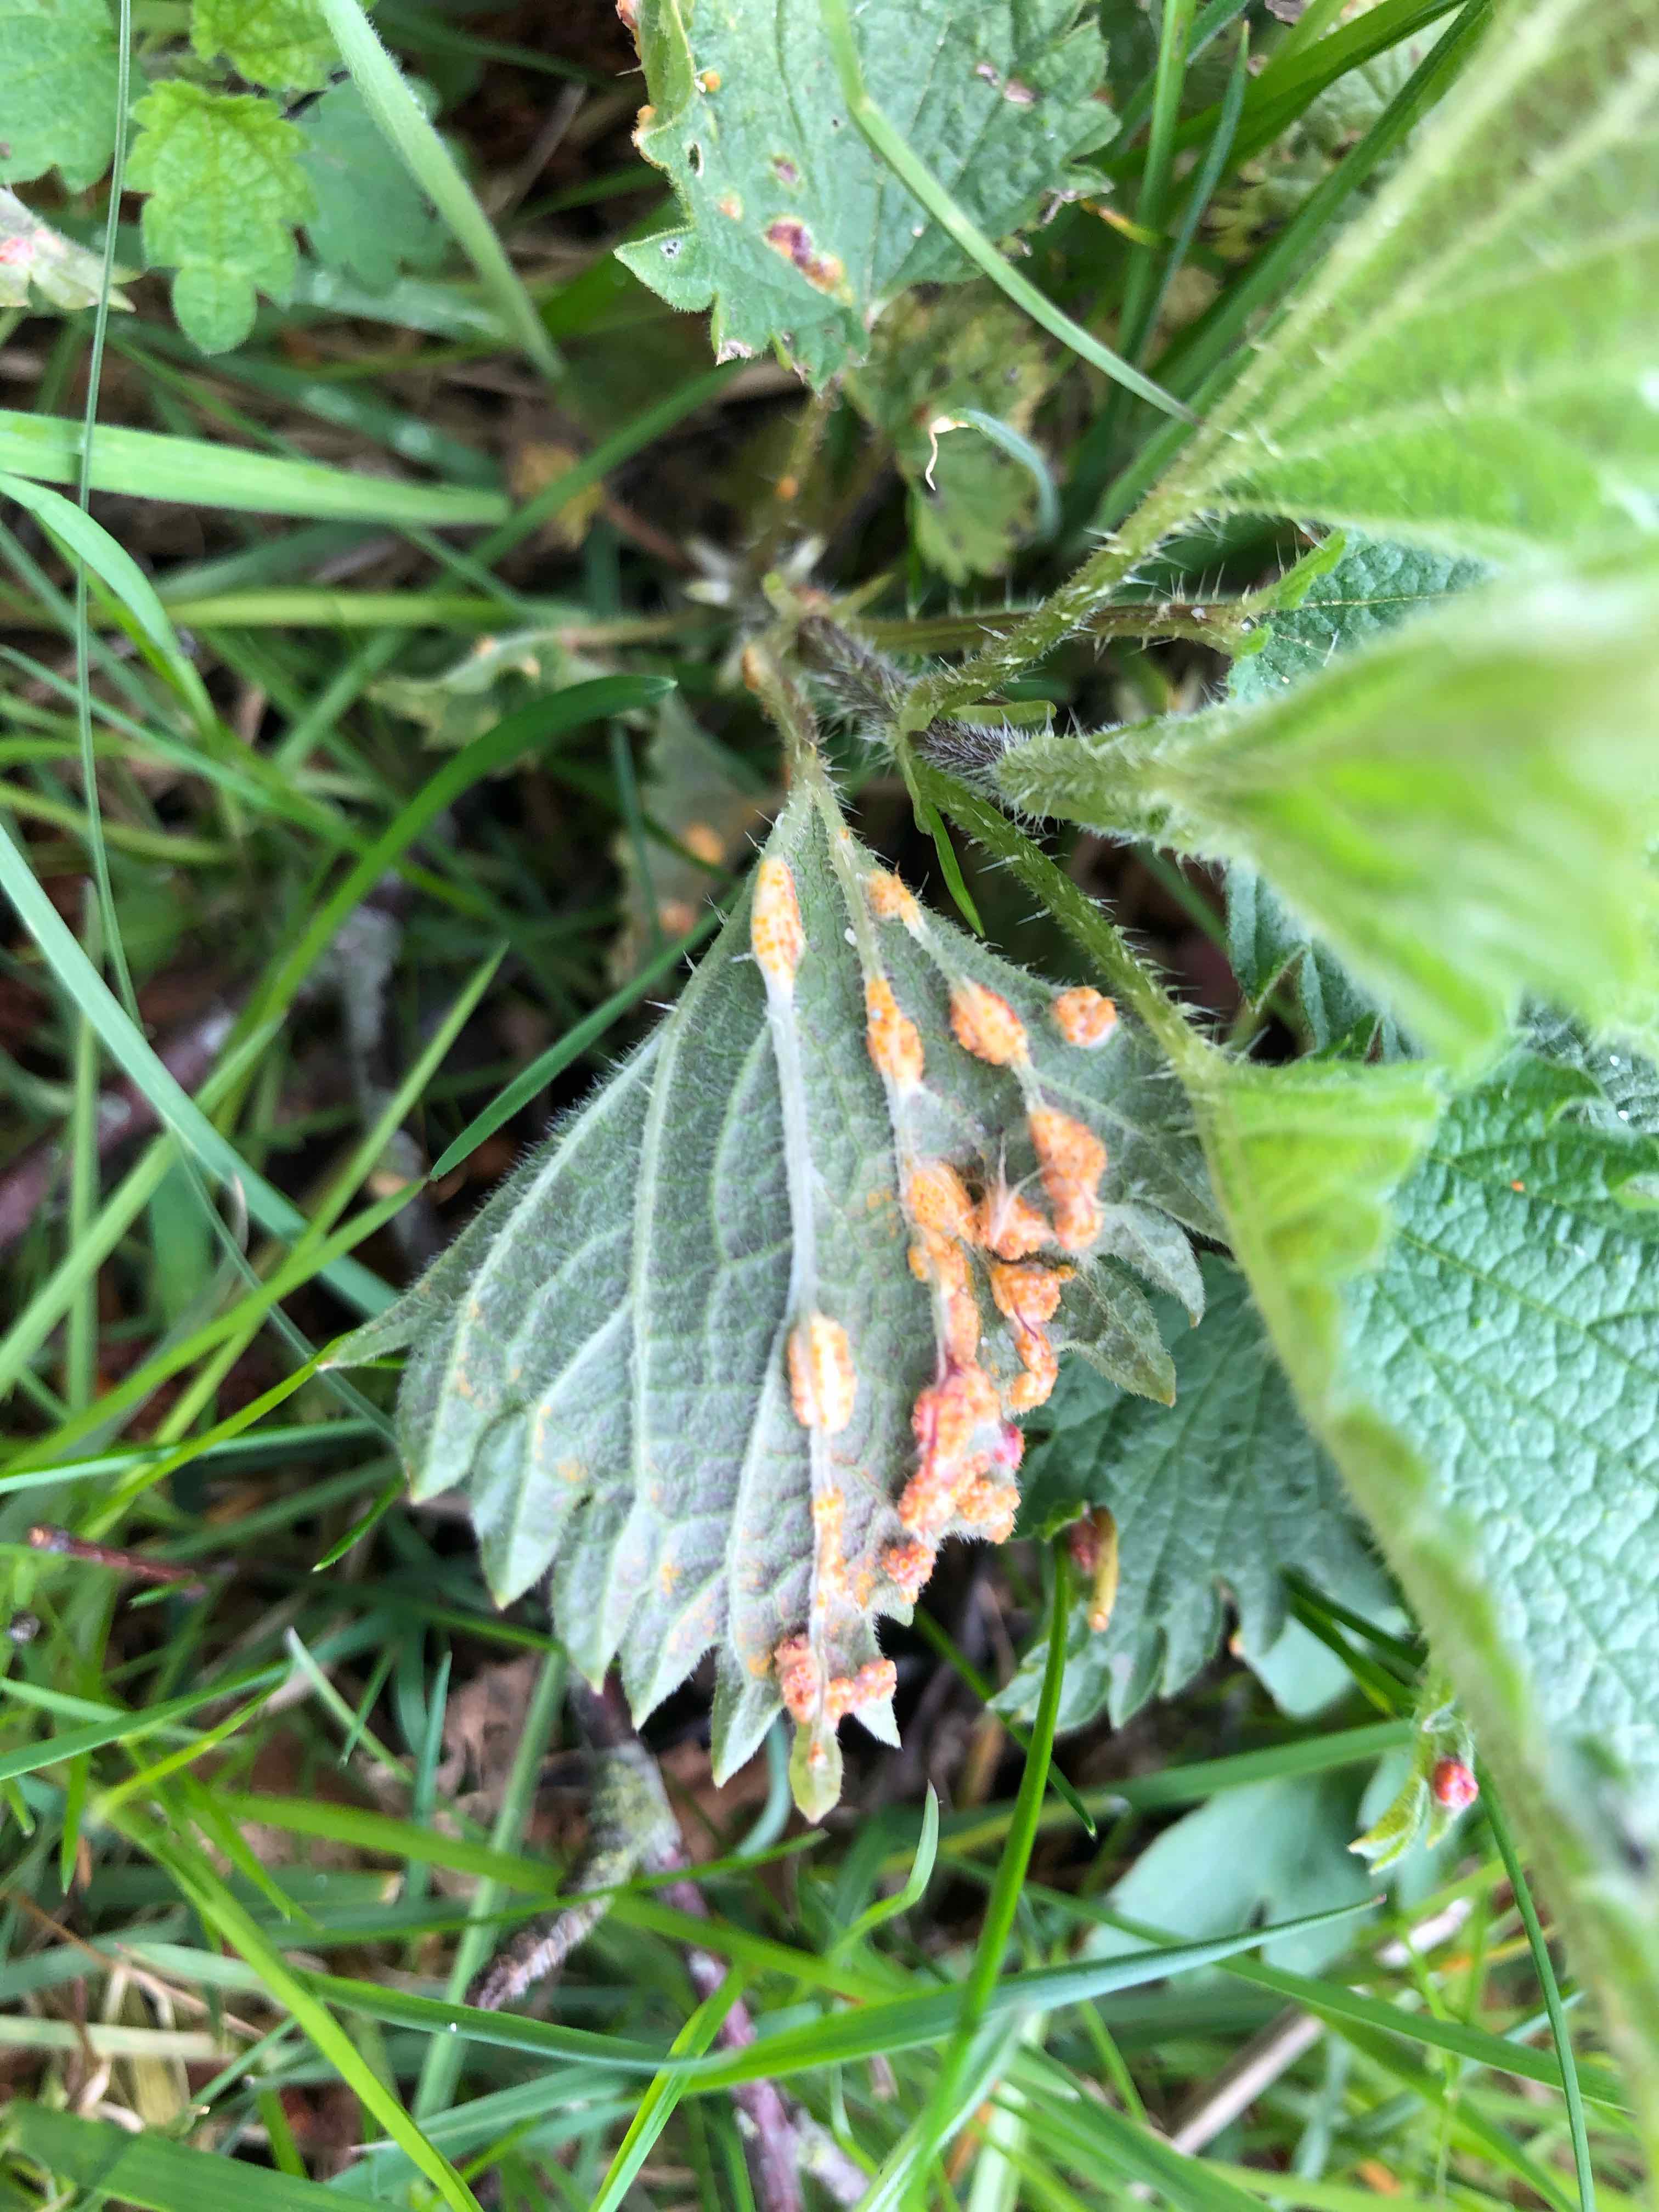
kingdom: Fungi
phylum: Basidiomycota
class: Pucciniomycetes
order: Pucciniales
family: Pucciniaceae
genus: Puccinia
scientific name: Puccinia urticata
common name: nældegalle-tvecellerust
